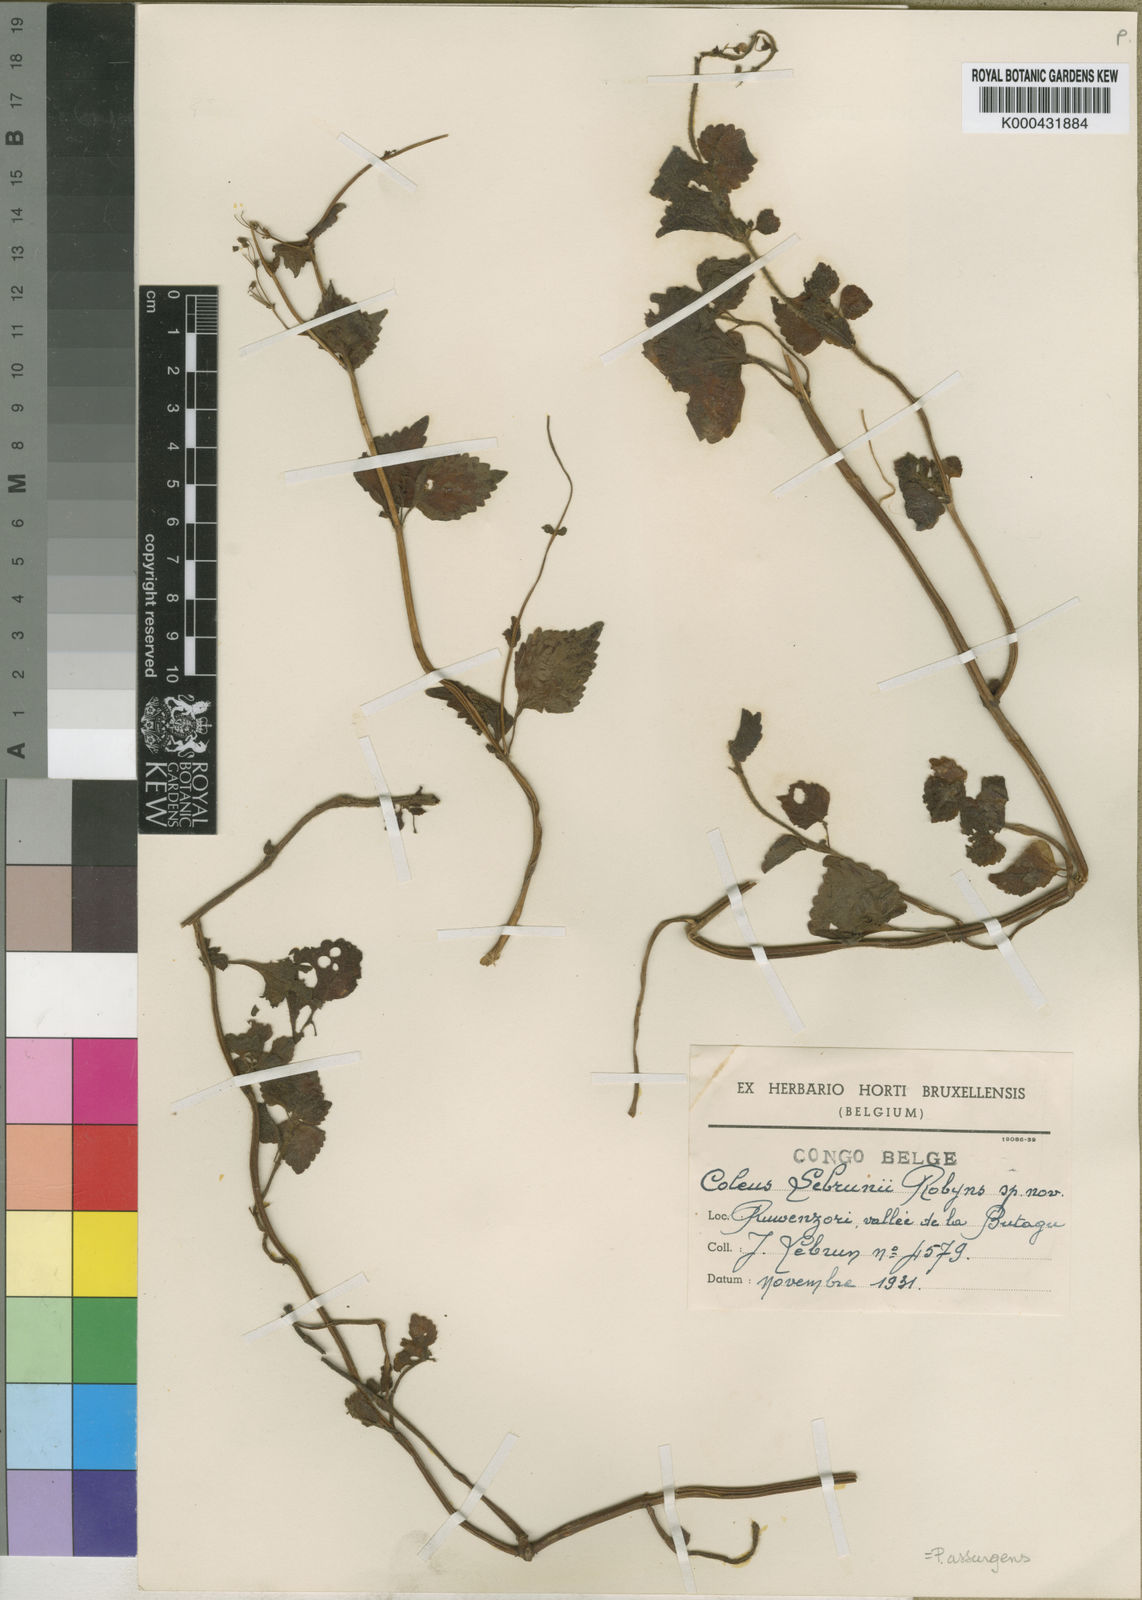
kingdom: Plantae
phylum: Tracheophyta
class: Magnoliopsida
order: Lamiales
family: Lamiaceae
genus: Coleus
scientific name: Coleus alpinus
